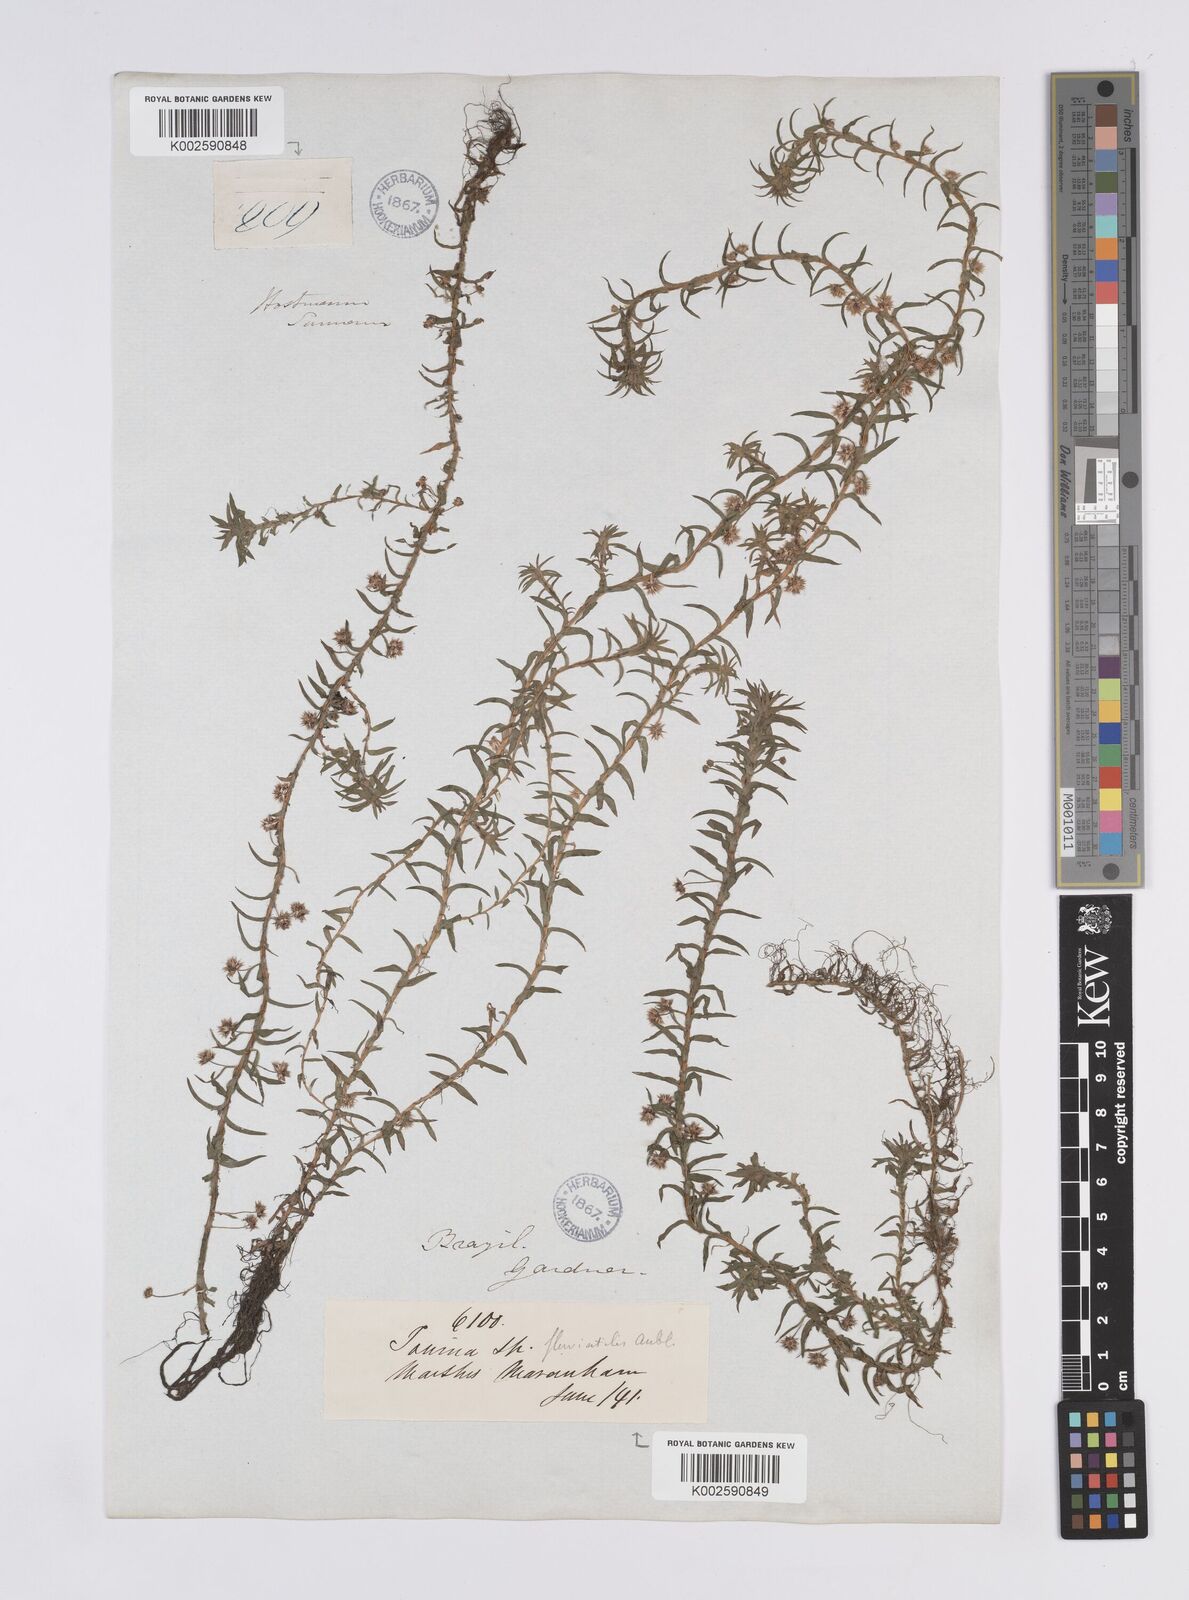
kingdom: Plantae
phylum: Tracheophyta
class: Liliopsida
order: Poales
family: Eriocaulaceae
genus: Paepalanthus
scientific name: Paepalanthus fluviatilis
